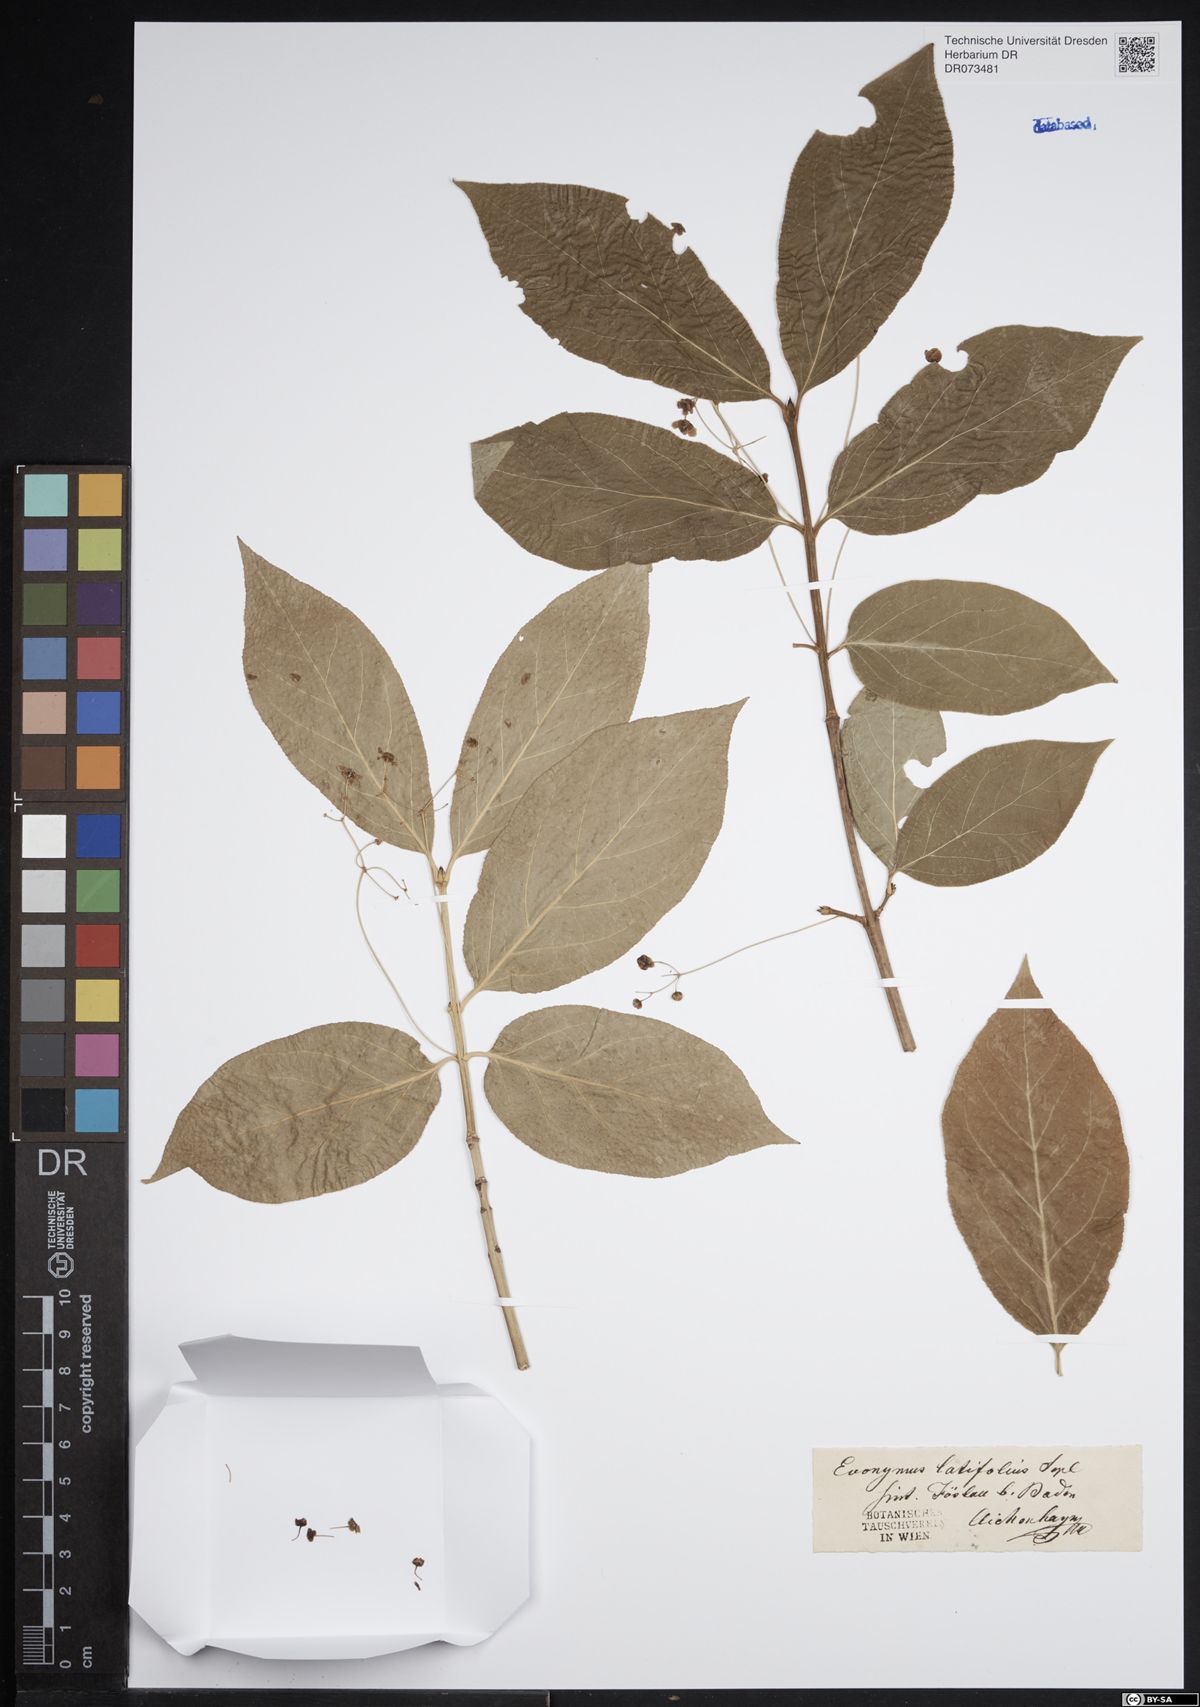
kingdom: Plantae
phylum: Tracheophyta
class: Magnoliopsida
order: Celastrales
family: Celastraceae
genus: Euonymus
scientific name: Euonymus latifolius
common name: Large-leaved spindle
